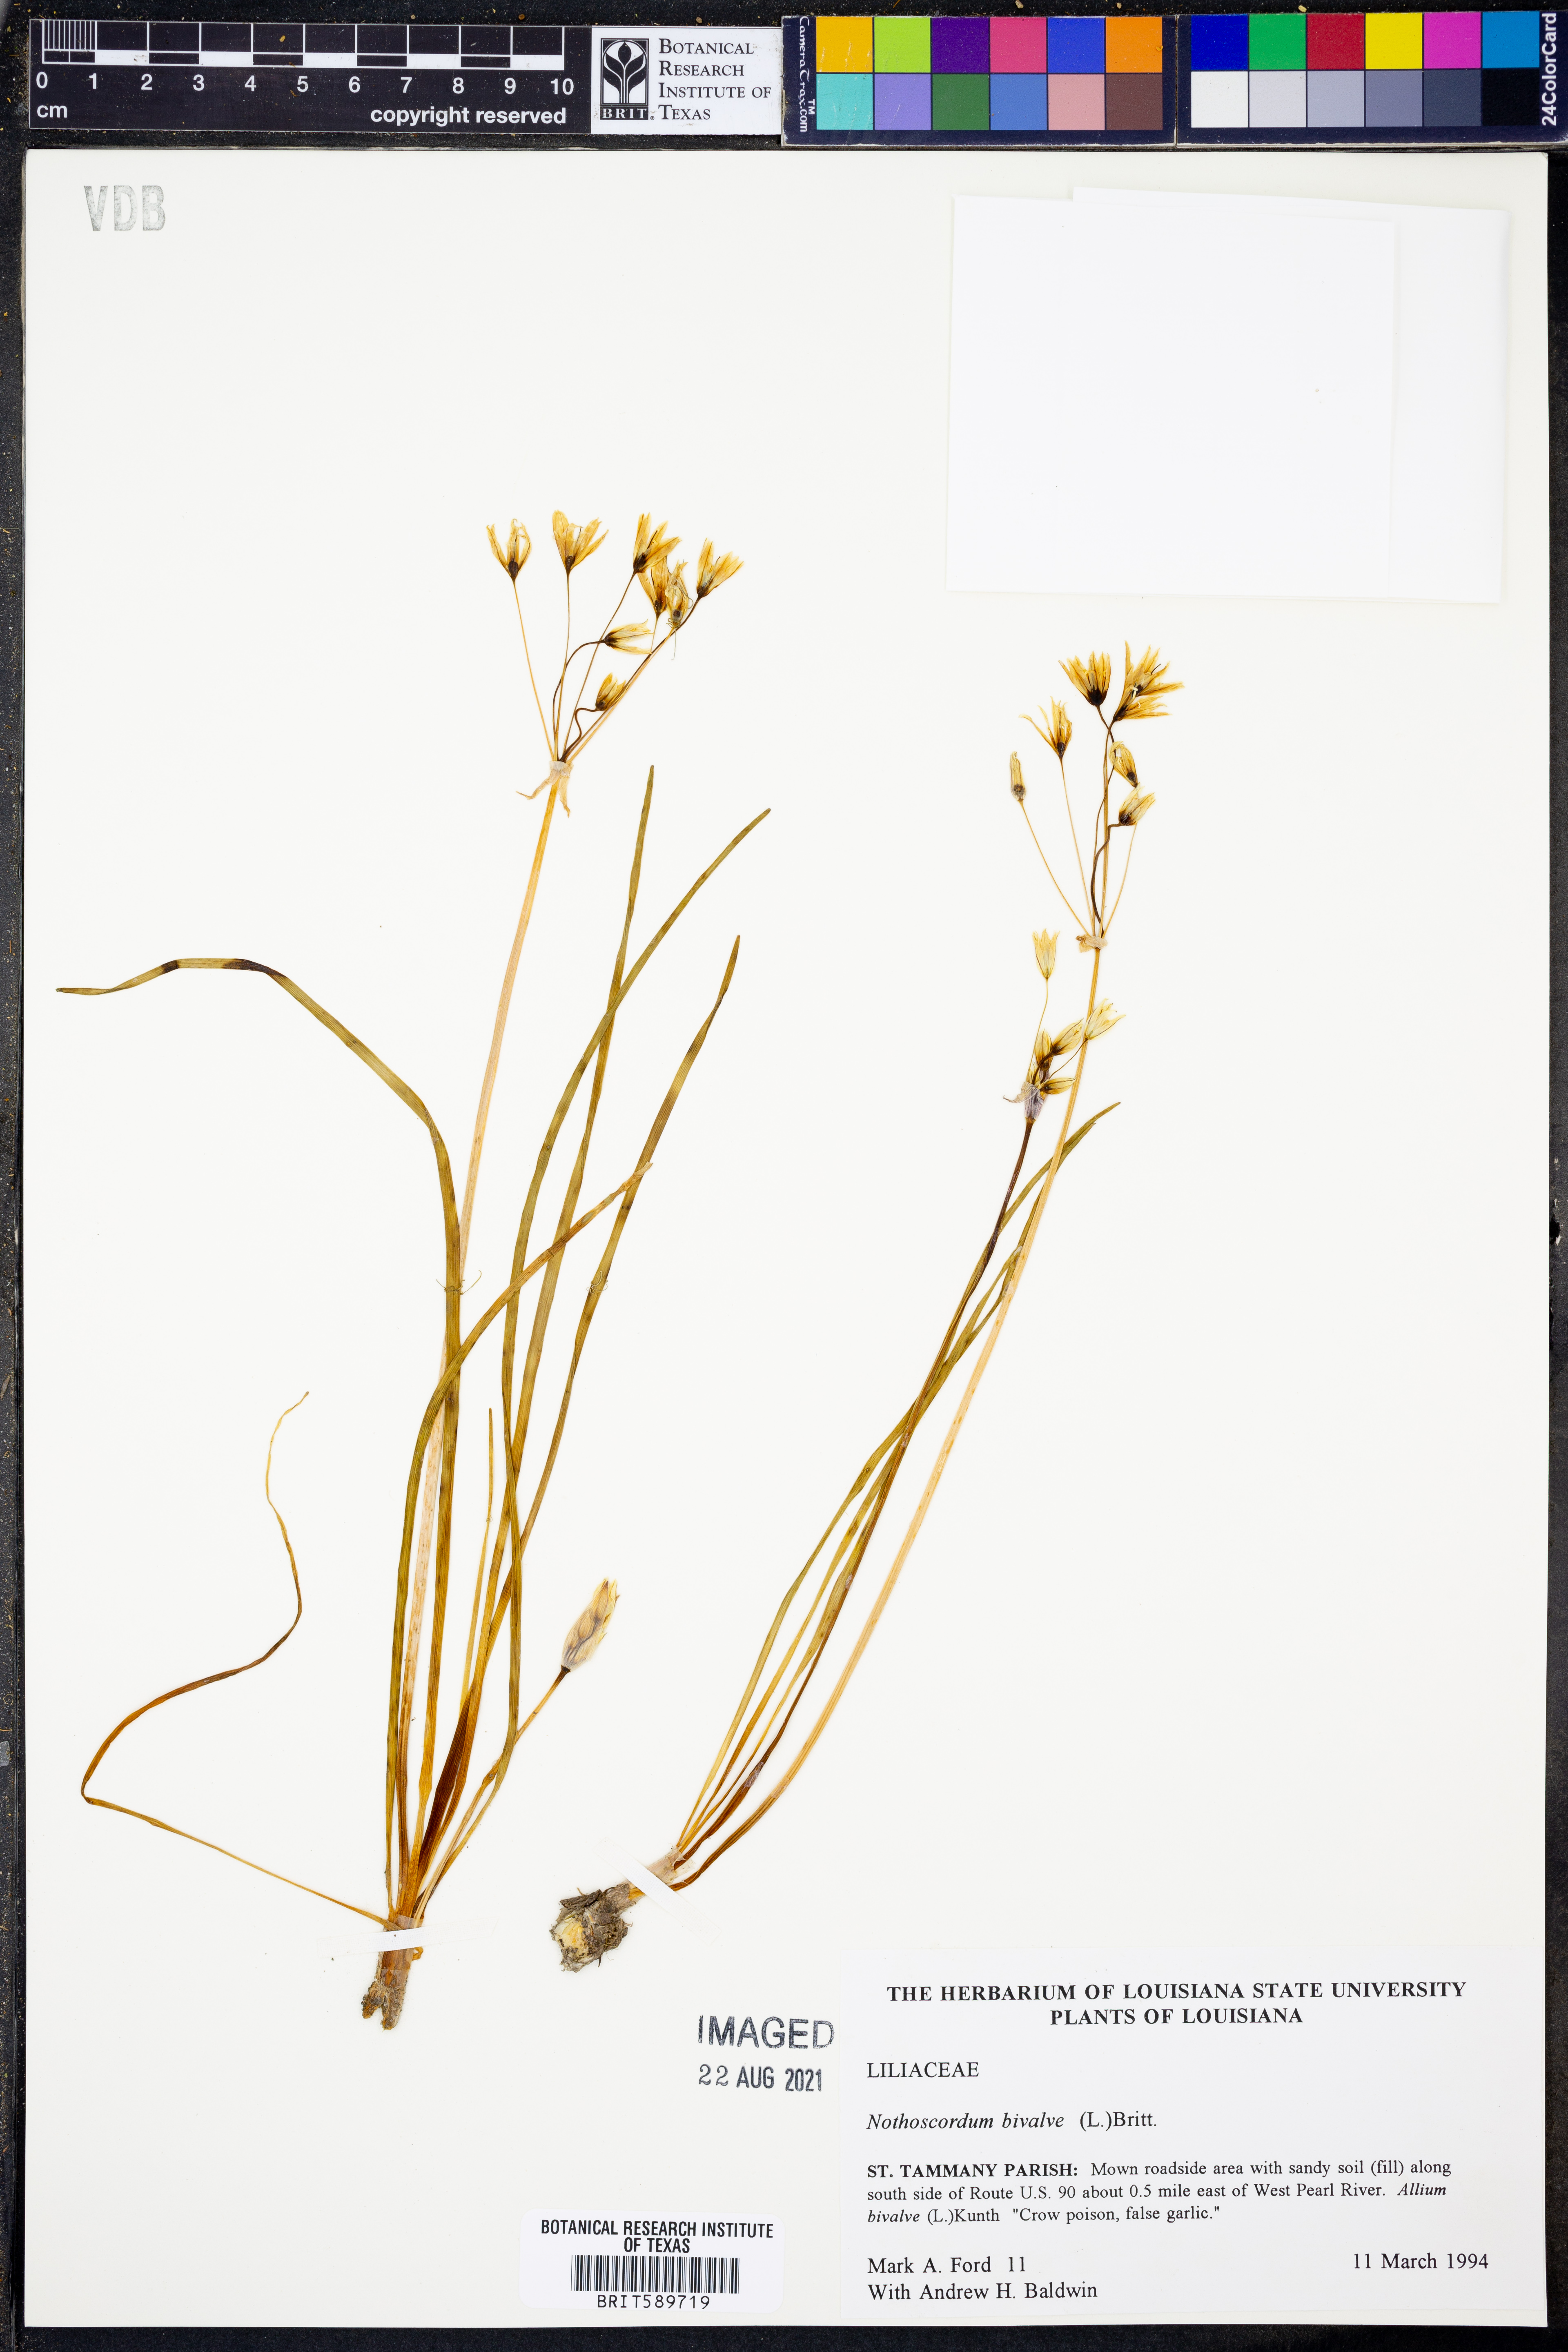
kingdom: Plantae
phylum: Tracheophyta
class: Liliopsida
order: Asparagales
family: Amaryllidaceae
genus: Nothoscordum
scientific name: Nothoscordum bivalve
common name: Crow-poison
